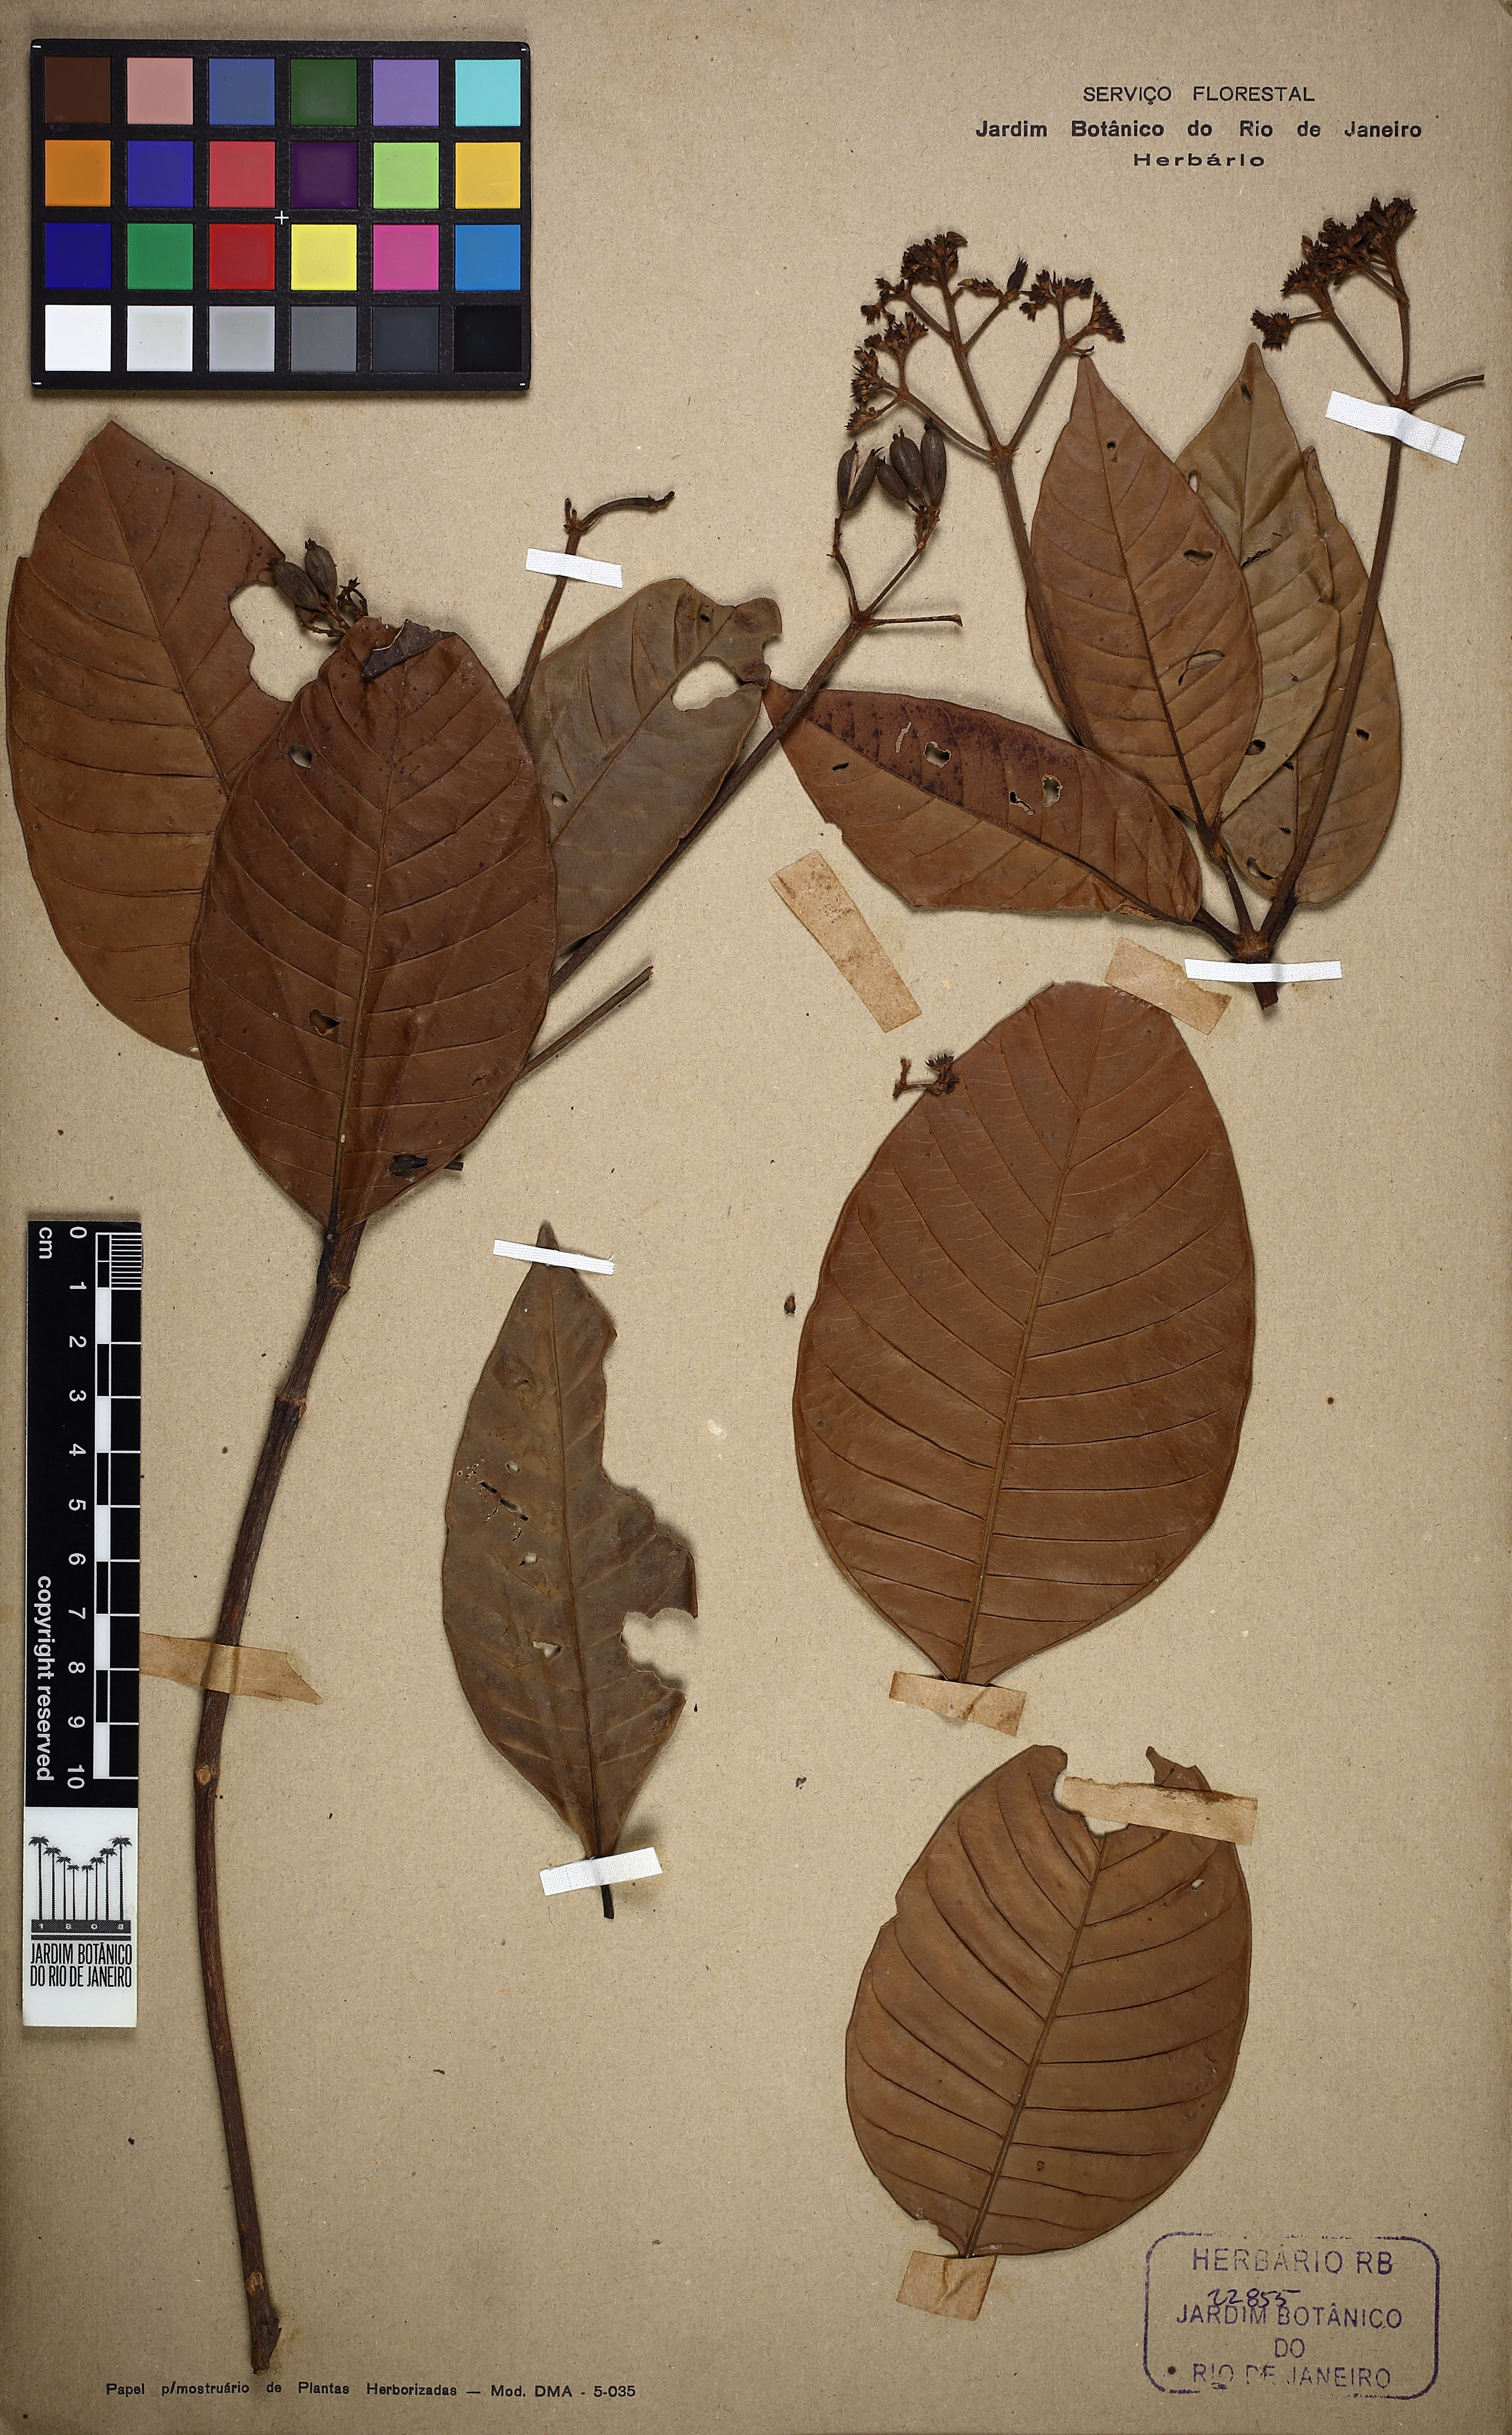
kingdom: Plantae
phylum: Tracheophyta
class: Magnoliopsida
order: Gentianales
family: Rubiaceae
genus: Ciliosemina
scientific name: Ciliosemina pedunculata
